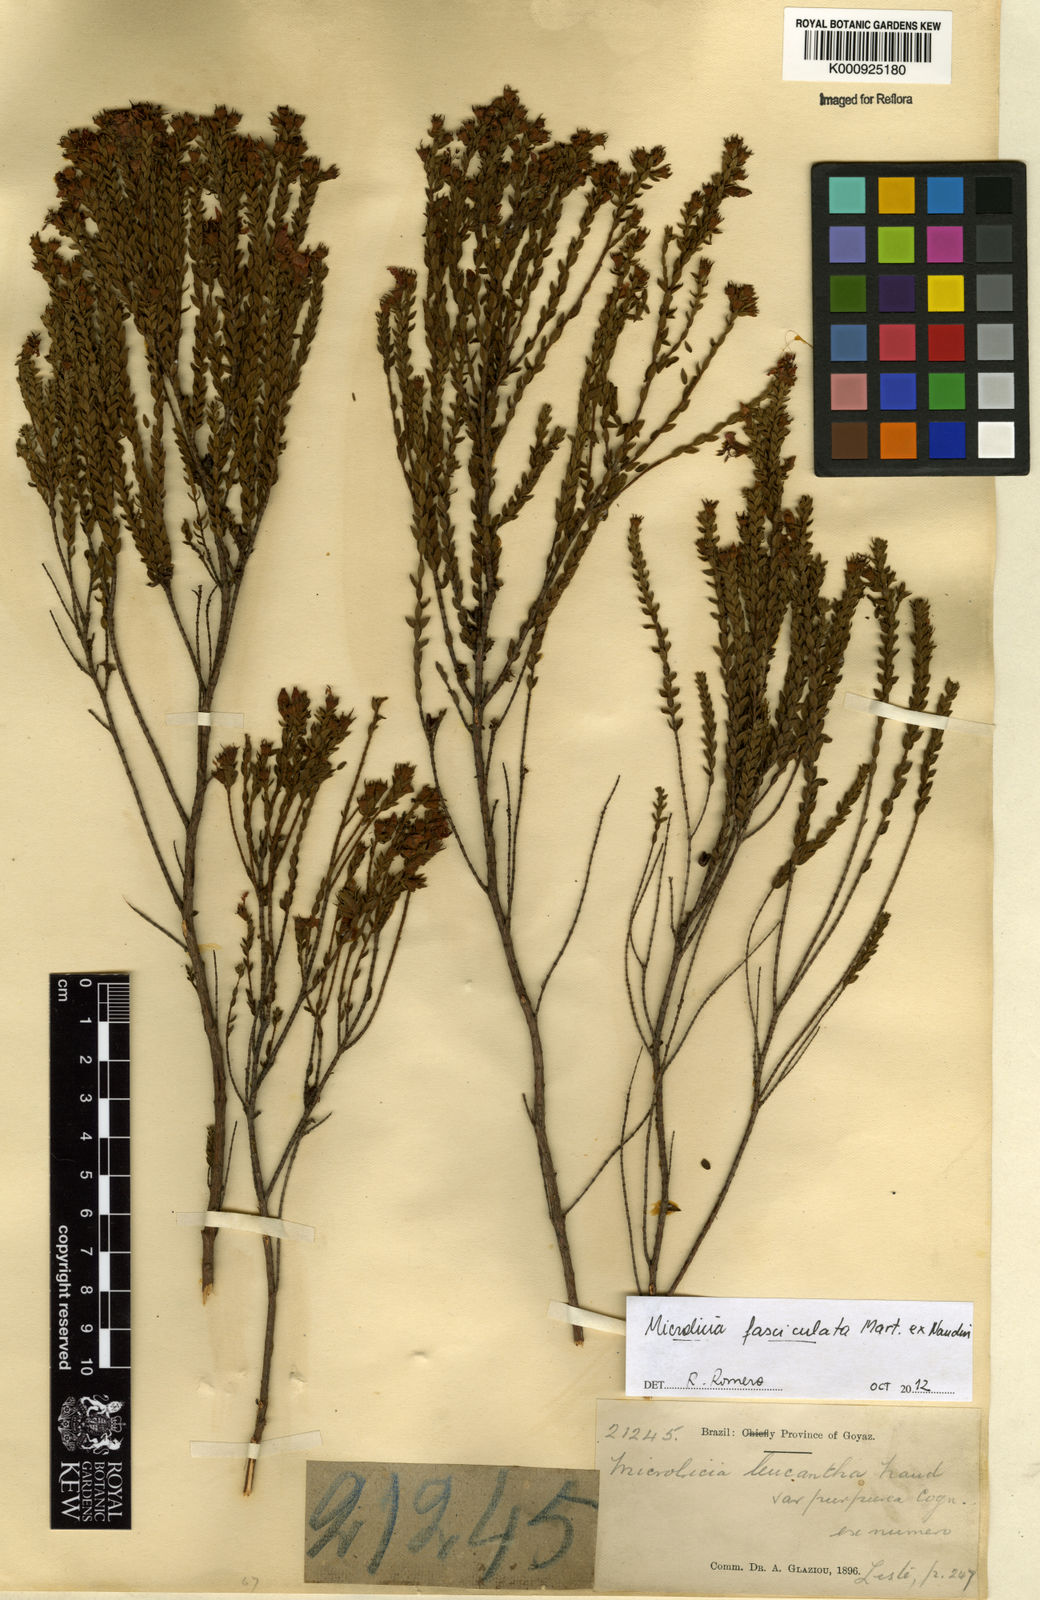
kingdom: Plantae
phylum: Tracheophyta
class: Magnoliopsida
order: Myrtales
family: Melastomataceae
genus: Microlicia
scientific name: Microlicia fasciculata
